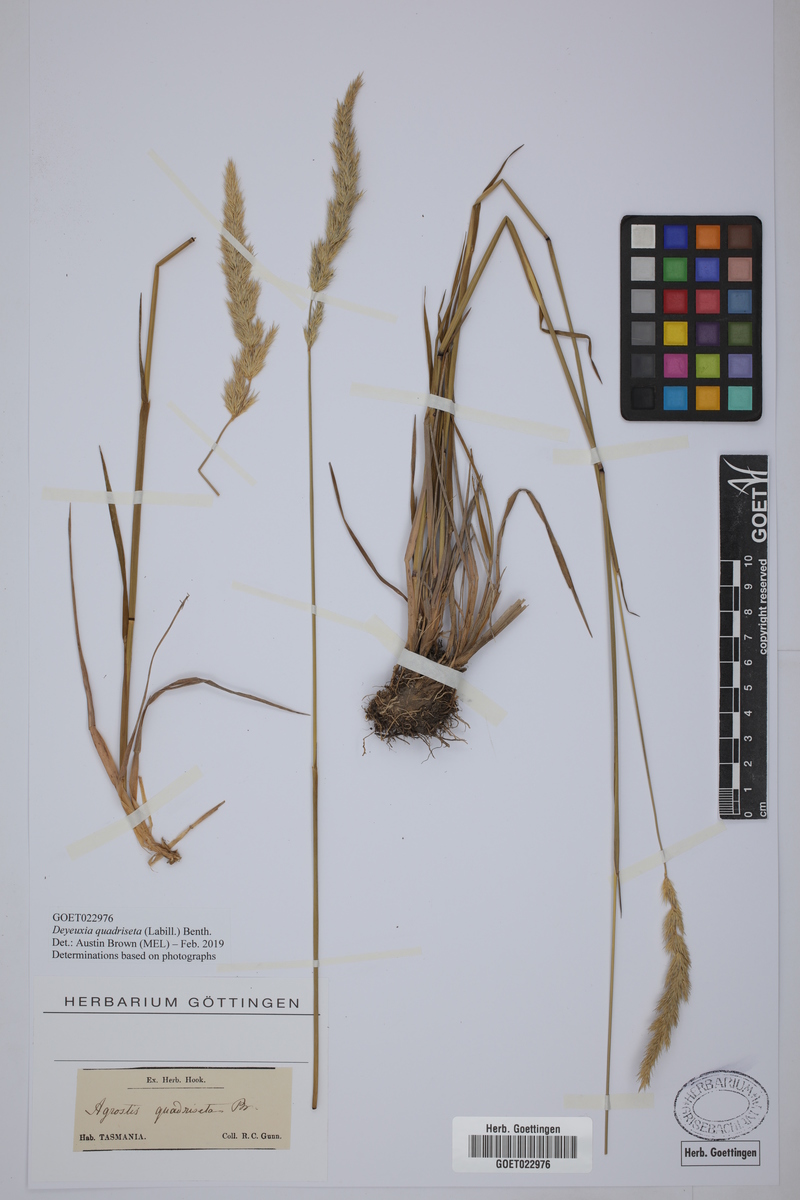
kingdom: Plantae
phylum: Tracheophyta
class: Liliopsida
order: Poales
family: Poaceae
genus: Calamagrostis
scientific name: Calamagrostis quadriseta
